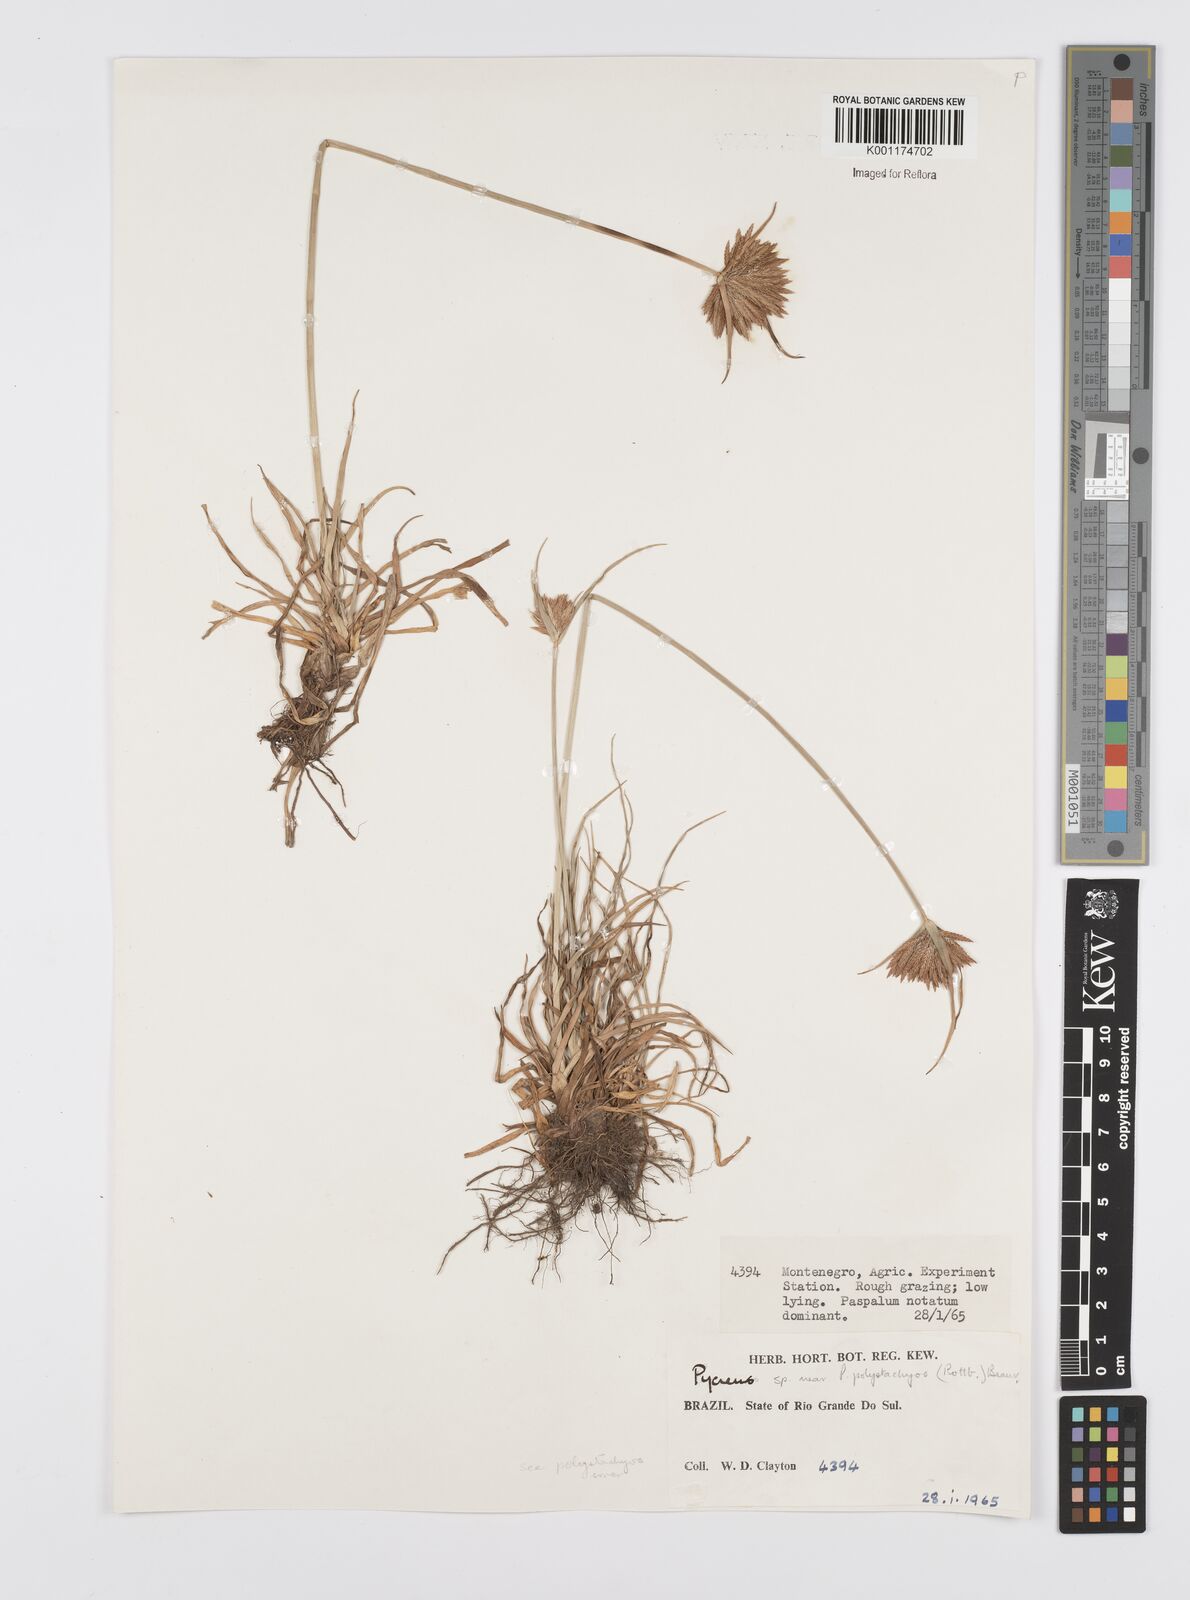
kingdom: Plantae
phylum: Tracheophyta
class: Liliopsida
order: Poales
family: Cyperaceae
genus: Cyperus
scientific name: Cyperus polystachyos
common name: Bunchy flat sedge
